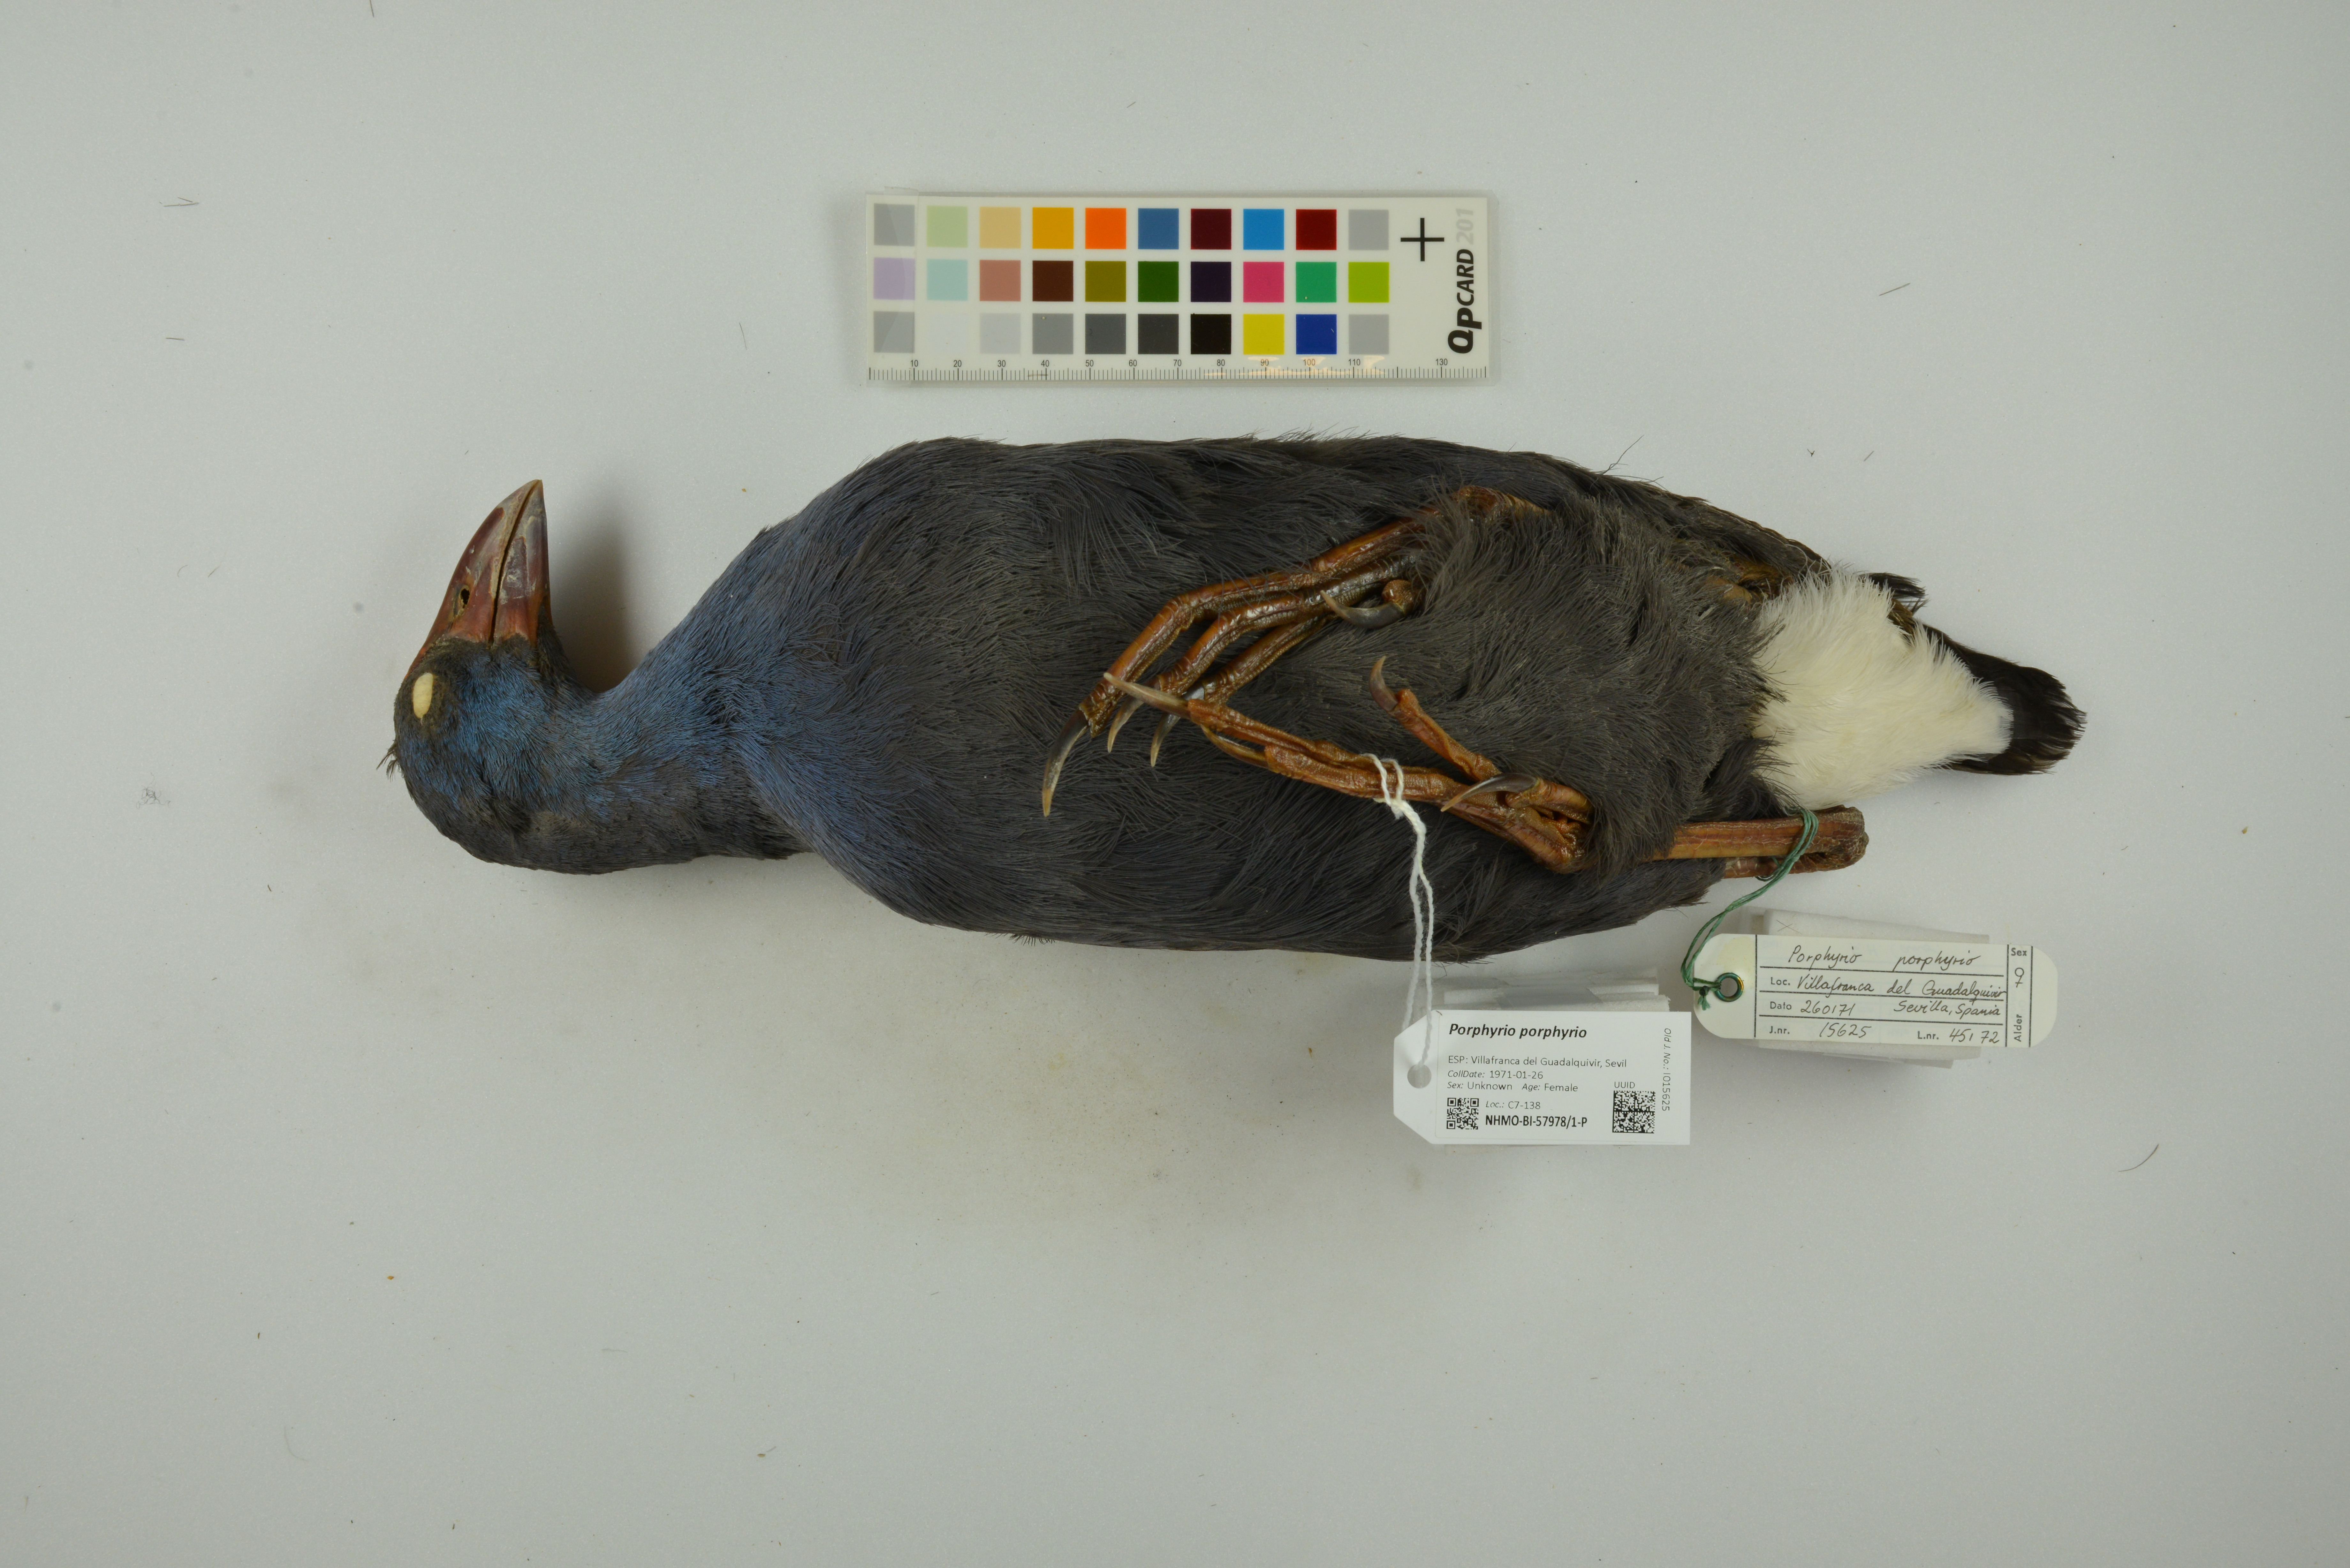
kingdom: Animalia
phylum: Chordata
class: Aves
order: Gruiformes
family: Rallidae
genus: Porphyrio
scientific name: Porphyrio porphyrio
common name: Purple swamphen
